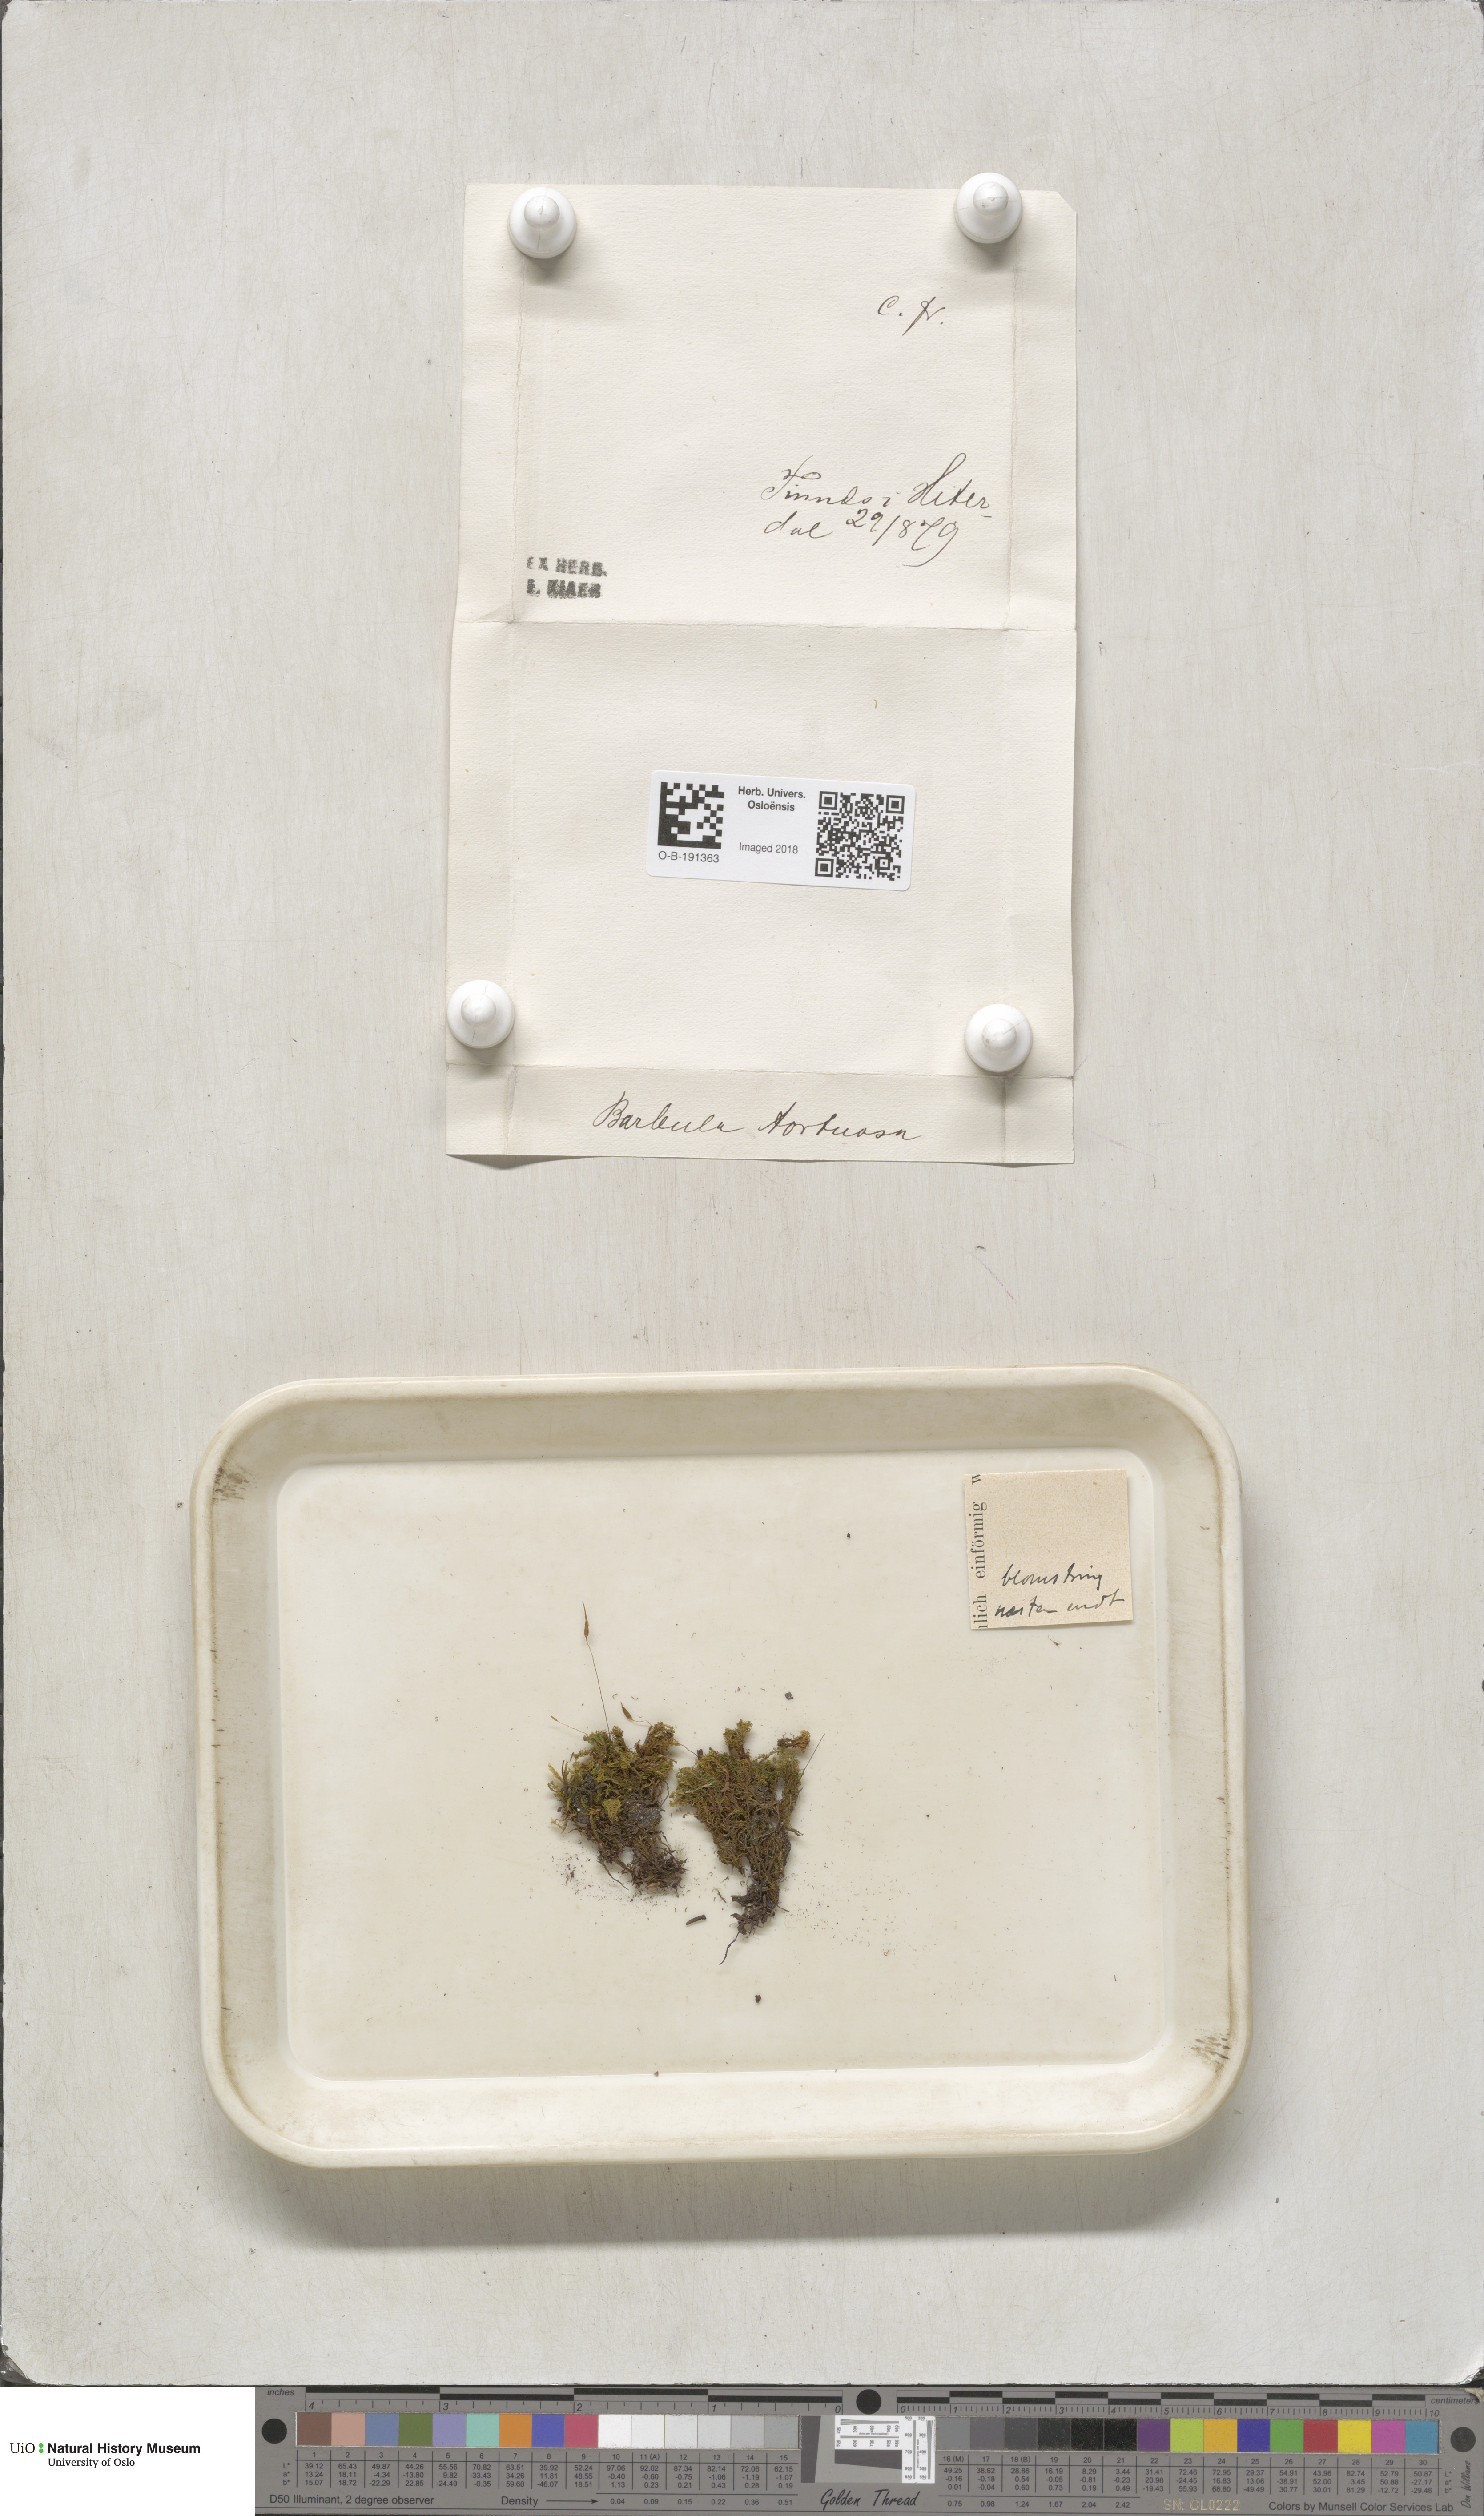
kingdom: Plantae
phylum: Bryophyta
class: Bryopsida
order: Pottiales
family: Pottiaceae
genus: Tortella
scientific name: Tortella tortuosa
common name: Frizzled crisp moss
